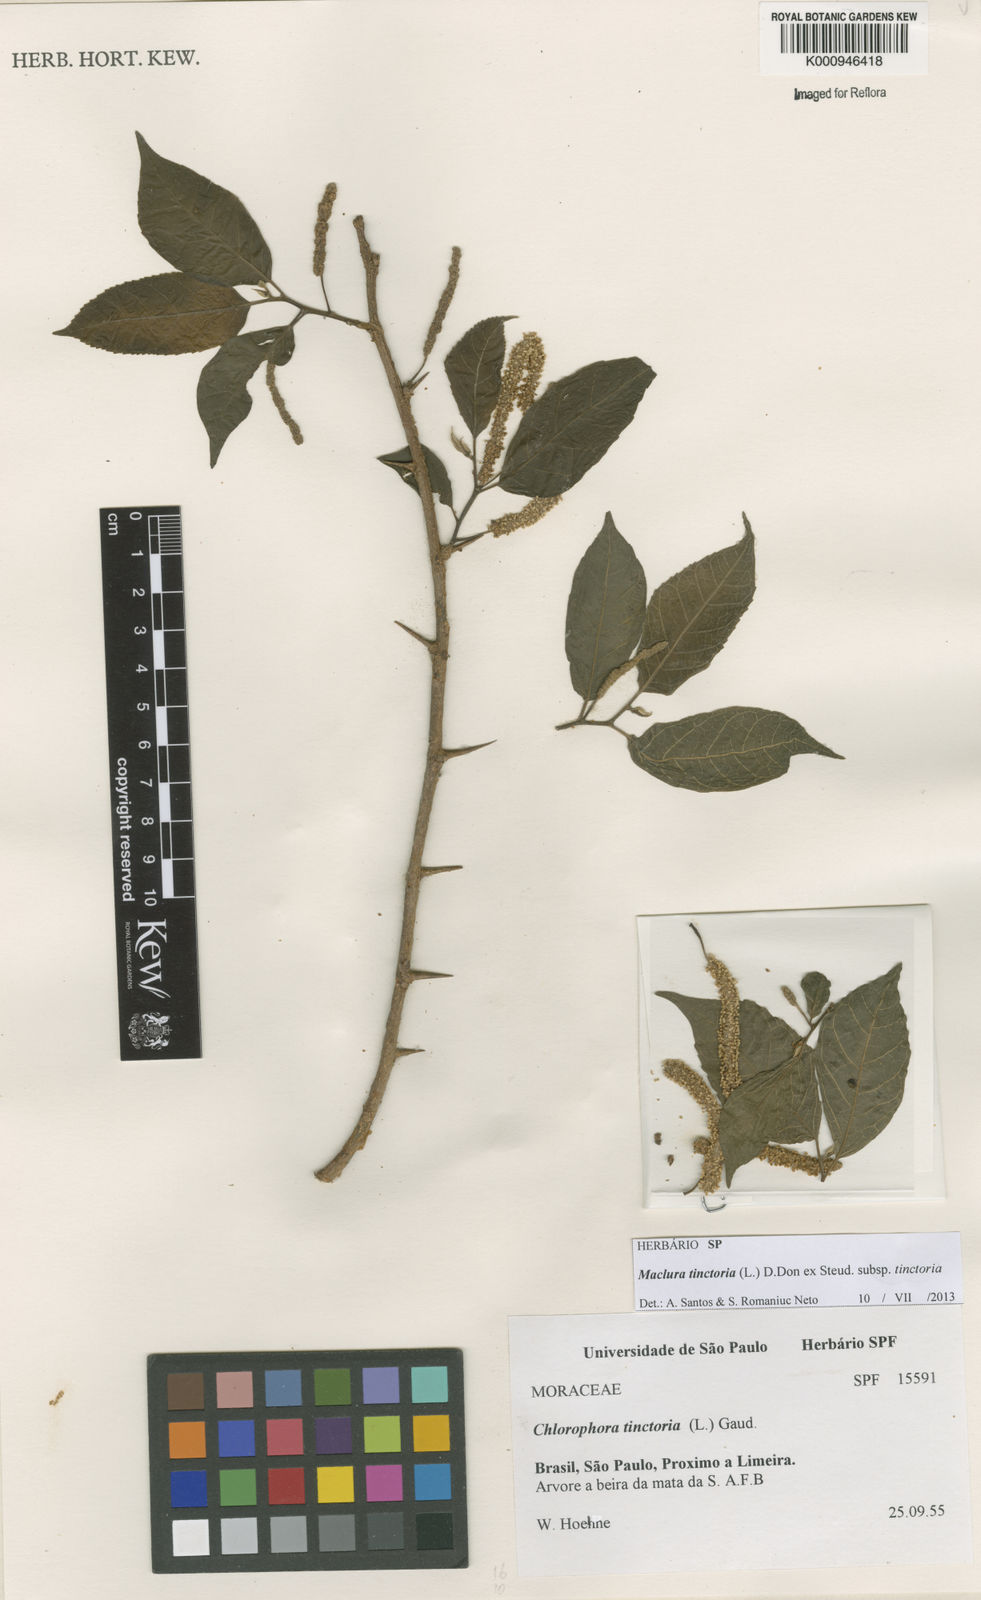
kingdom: Plantae
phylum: Tracheophyta
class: Magnoliopsida
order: Rosales
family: Moraceae
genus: Maclura
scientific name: Maclura
